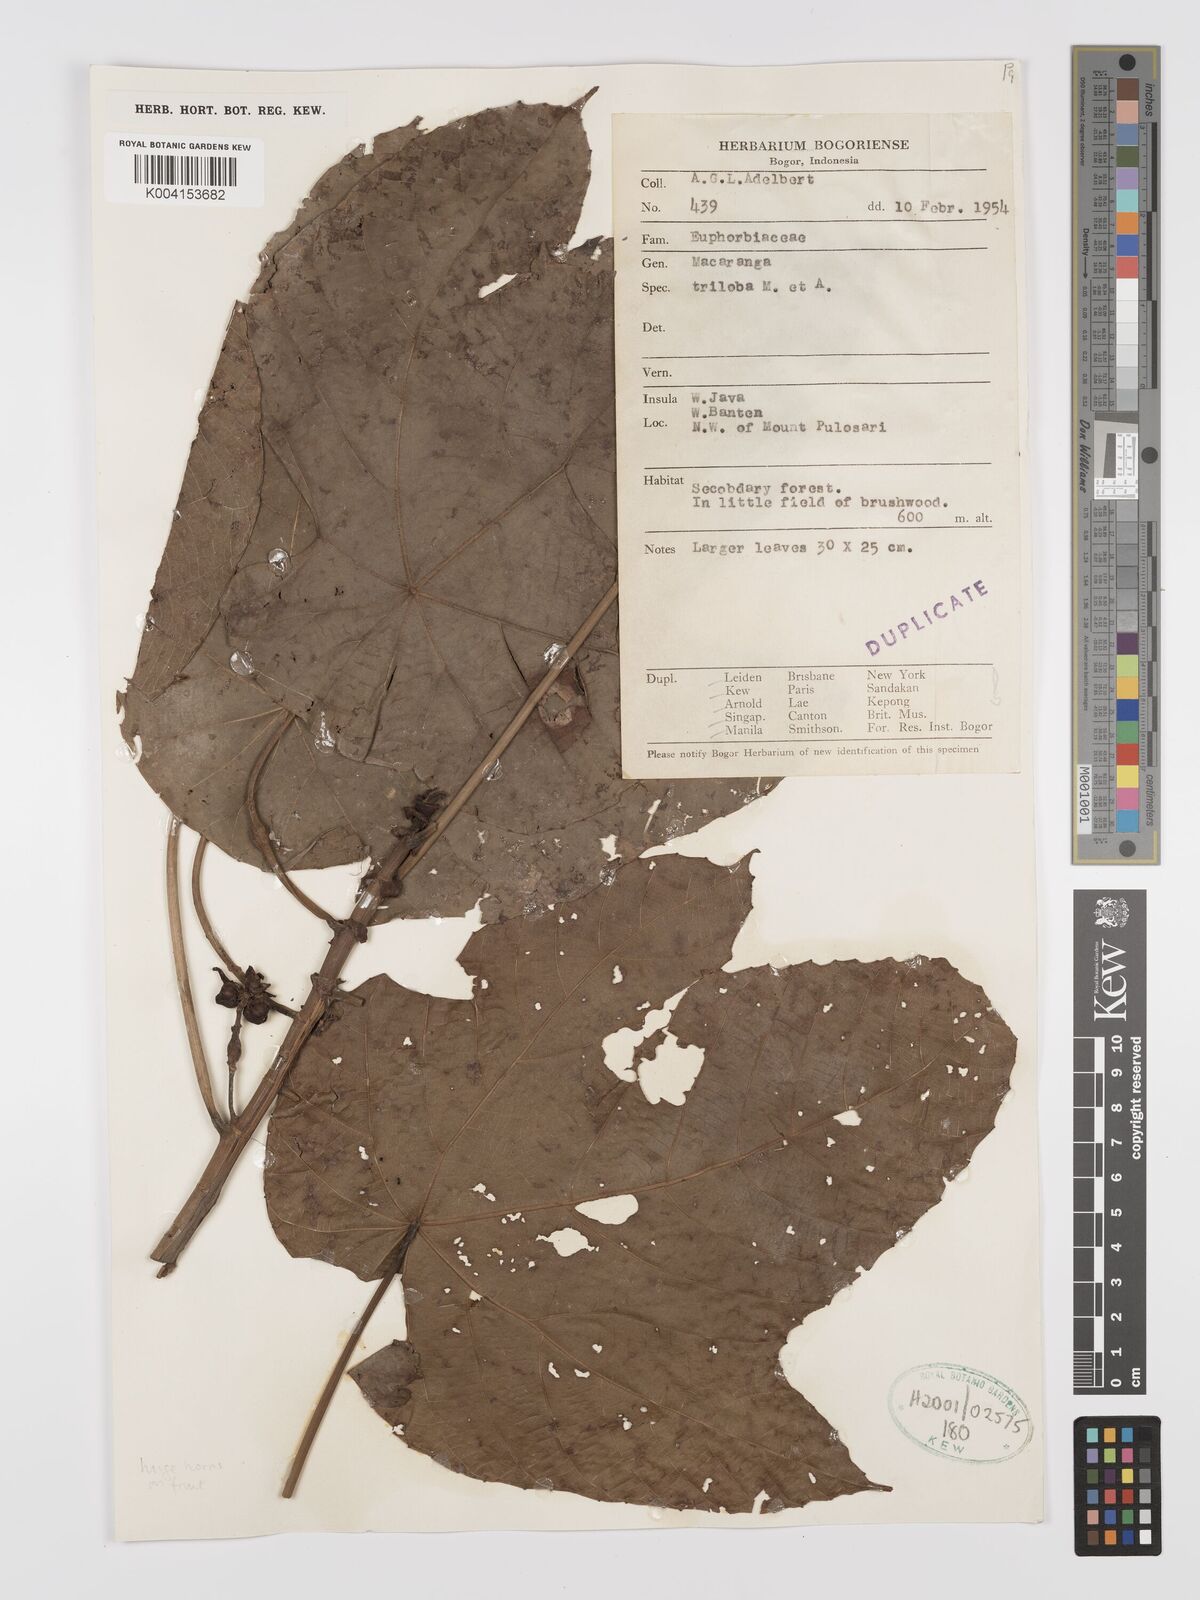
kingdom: Plantae
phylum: Tracheophyta
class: Magnoliopsida
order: Malpighiales
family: Euphorbiaceae
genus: Macaranga
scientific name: Macaranga triloba
